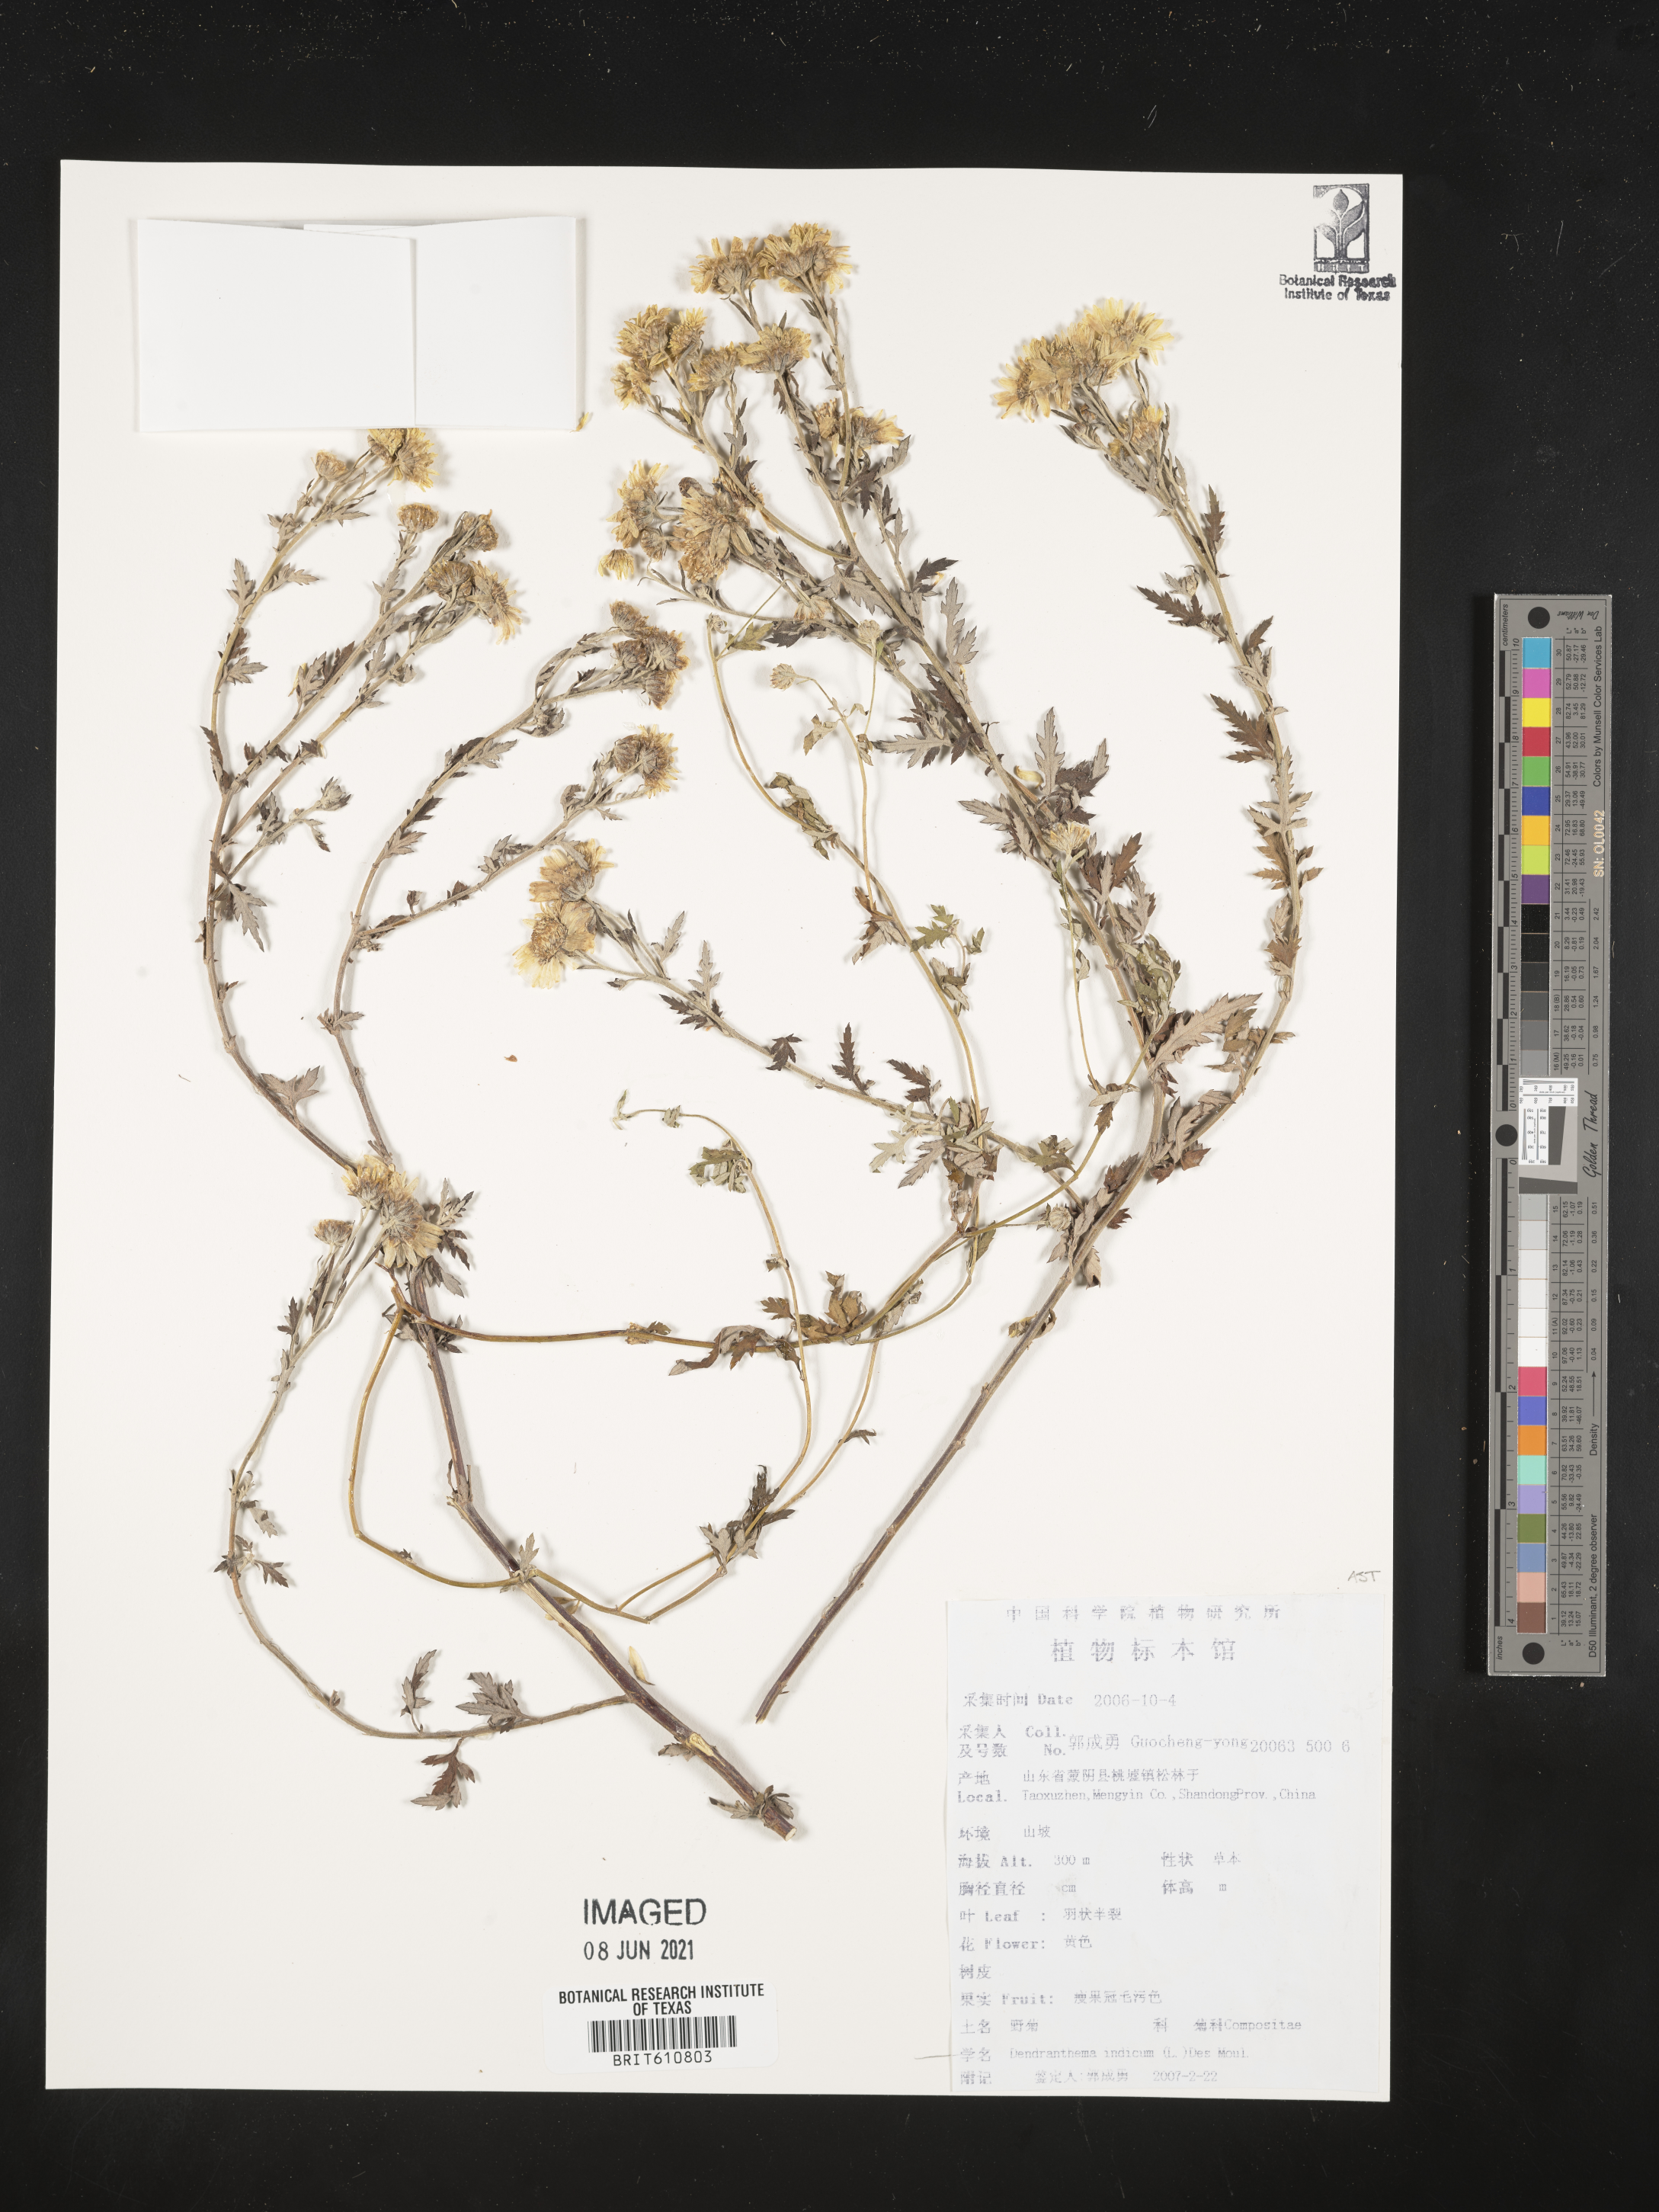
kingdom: Plantae
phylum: Tracheophyta
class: Magnoliopsida
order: Asterales
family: Asteraceae
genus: Chrysanthemum
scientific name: Chrysanthemum indicum
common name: Indian chrysanthemum
